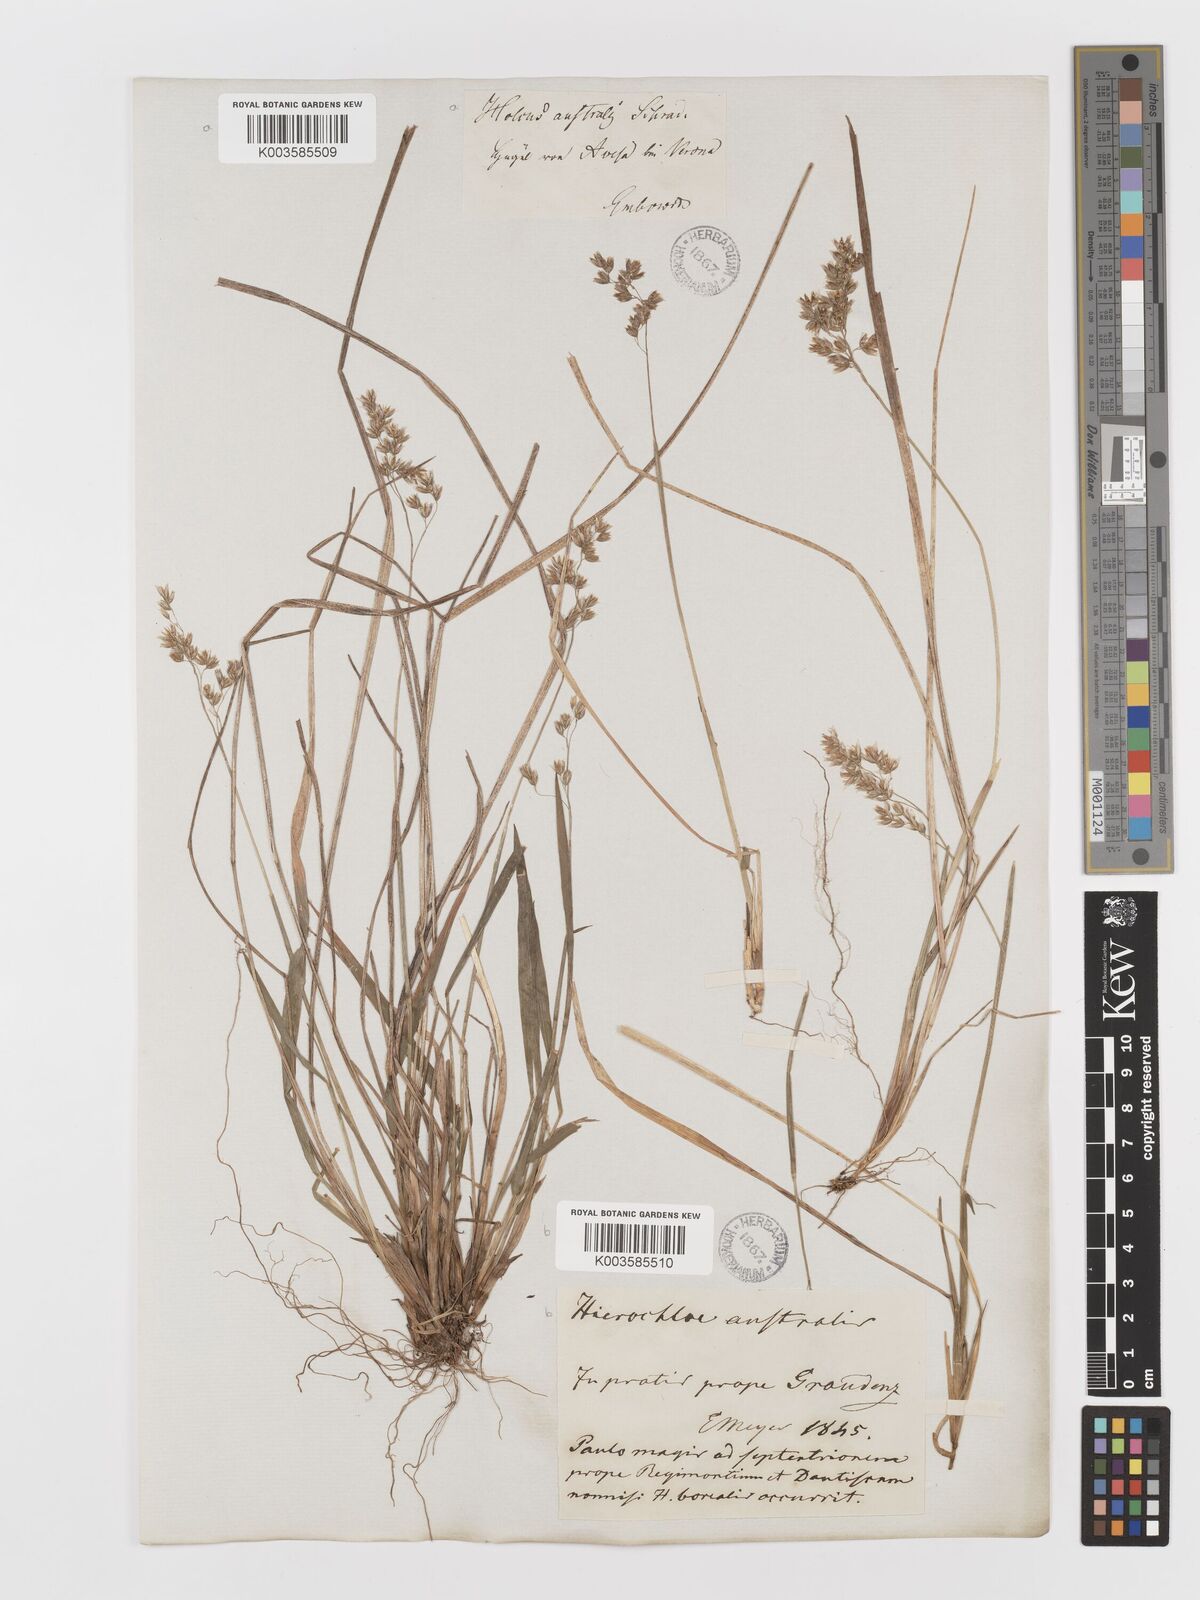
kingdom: Plantae
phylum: Tracheophyta
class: Liliopsida
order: Poales
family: Poaceae
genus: Anthoxanthum
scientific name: Anthoxanthum australe
